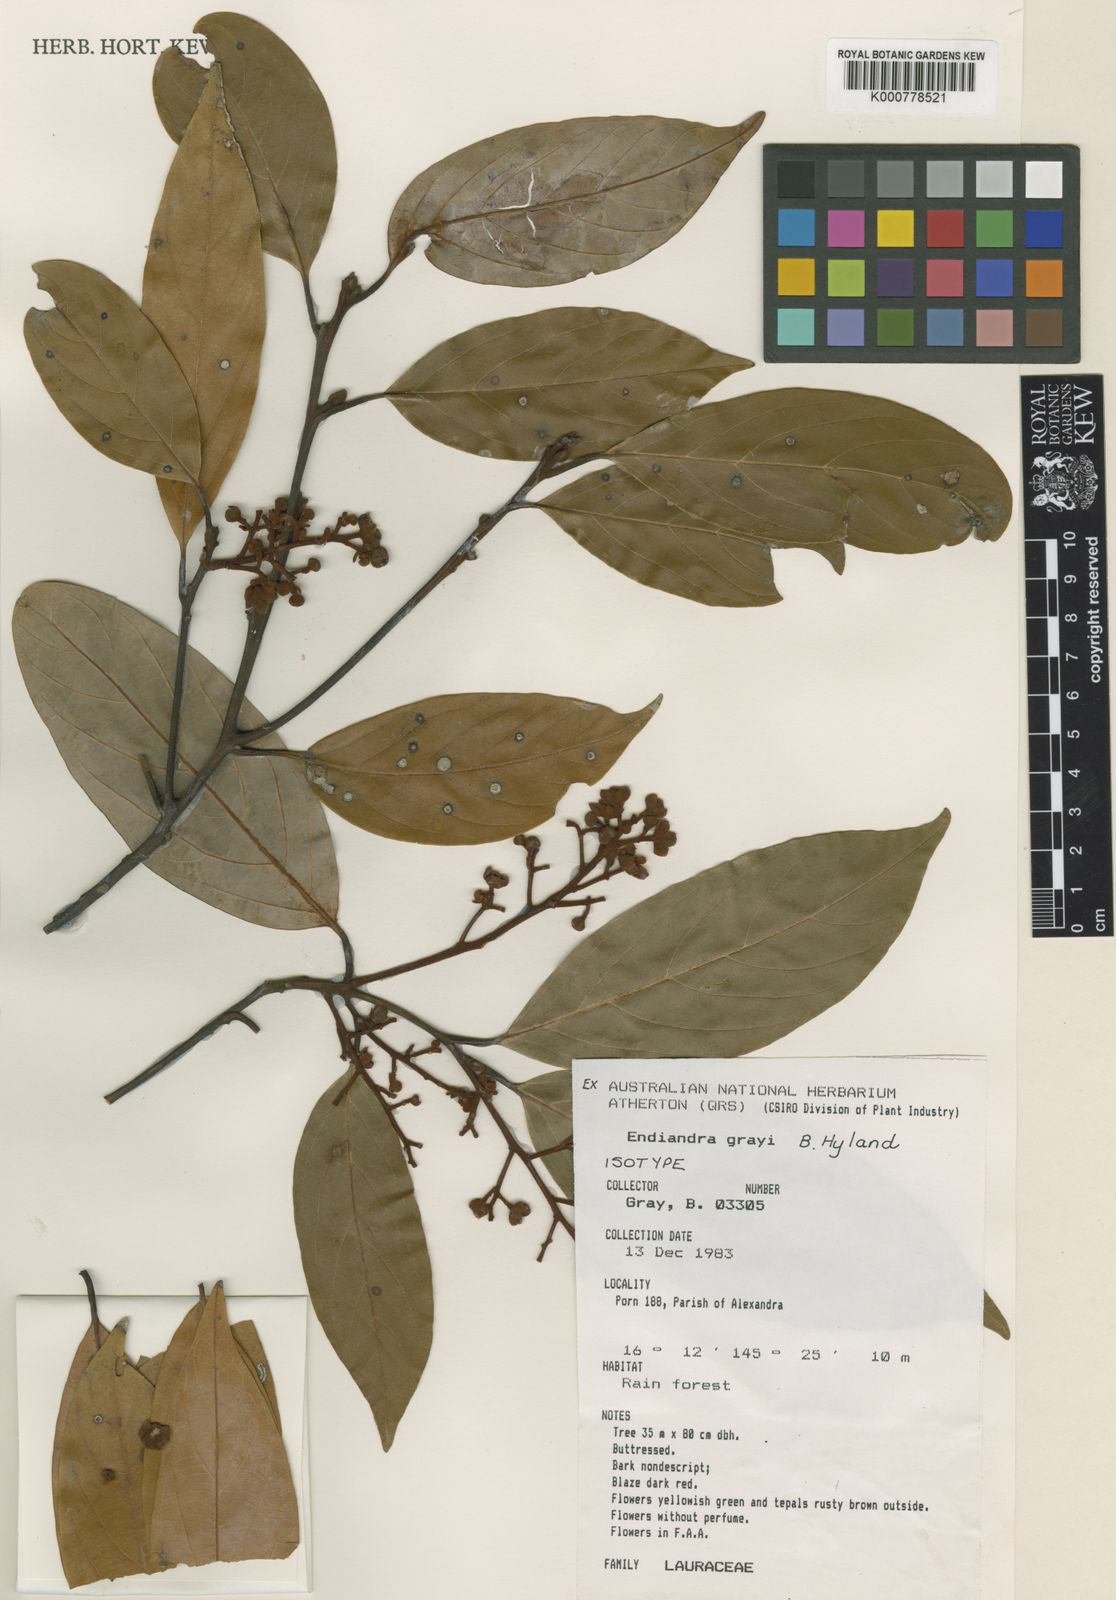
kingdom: Plantae
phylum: Tracheophyta
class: Magnoliopsida
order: Laurales
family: Lauraceae
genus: Endiandra
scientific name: Endiandra
